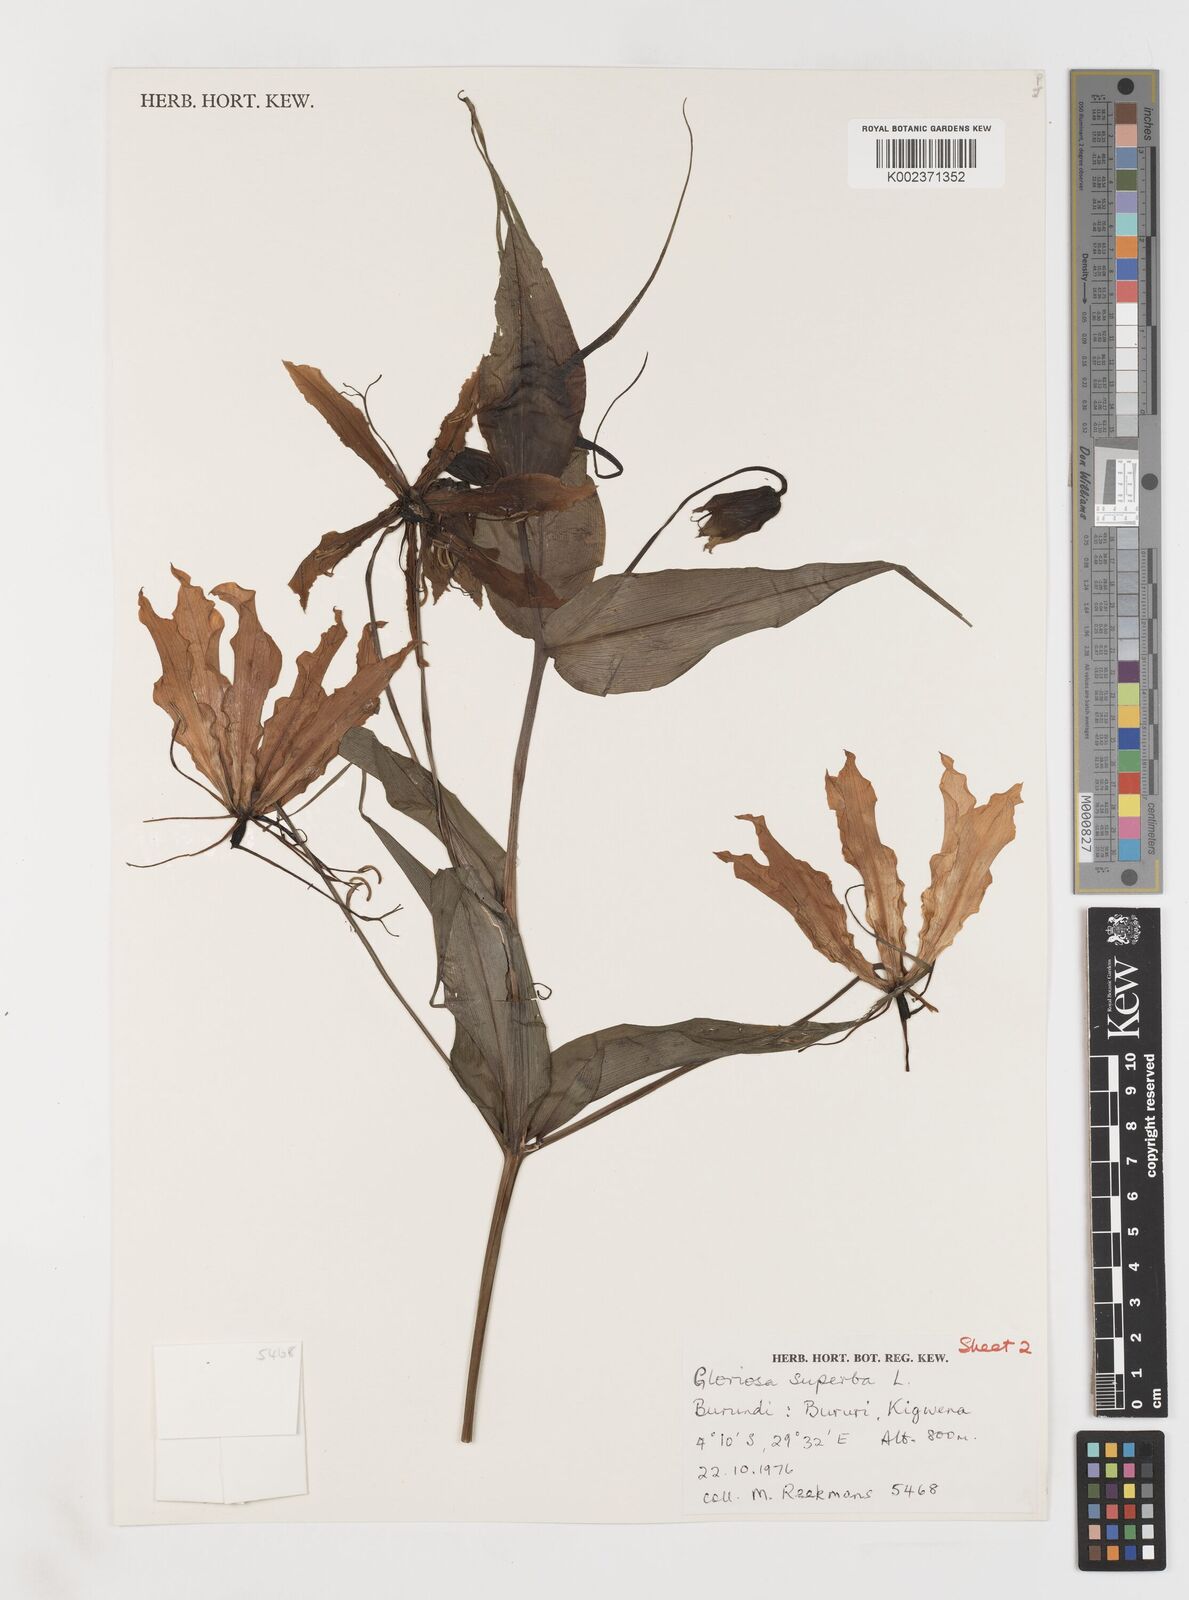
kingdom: Plantae
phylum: Tracheophyta
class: Liliopsida
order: Liliales
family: Colchicaceae
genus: Gloriosa
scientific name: Gloriosa superba
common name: Flame lily
